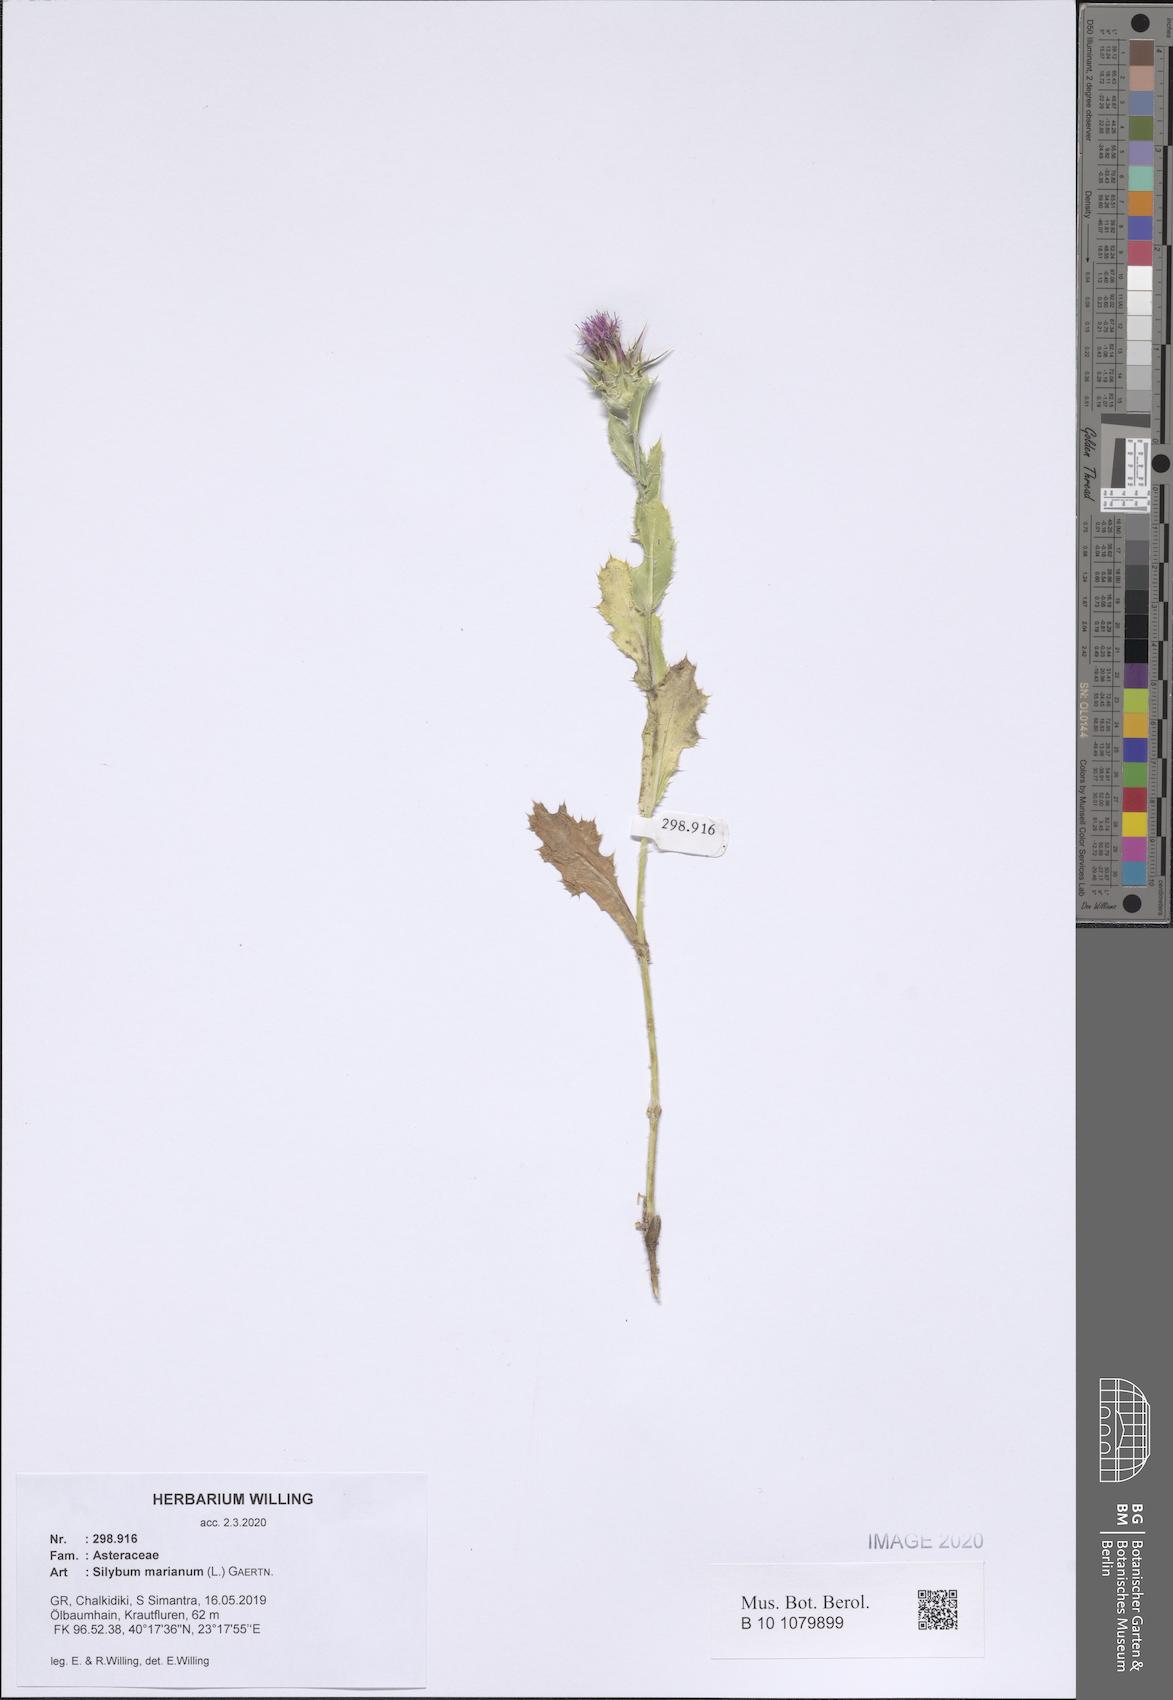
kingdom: Plantae
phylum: Tracheophyta
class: Magnoliopsida
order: Asterales
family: Asteraceae
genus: Silybum
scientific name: Silybum marianum
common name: Milk thistle
